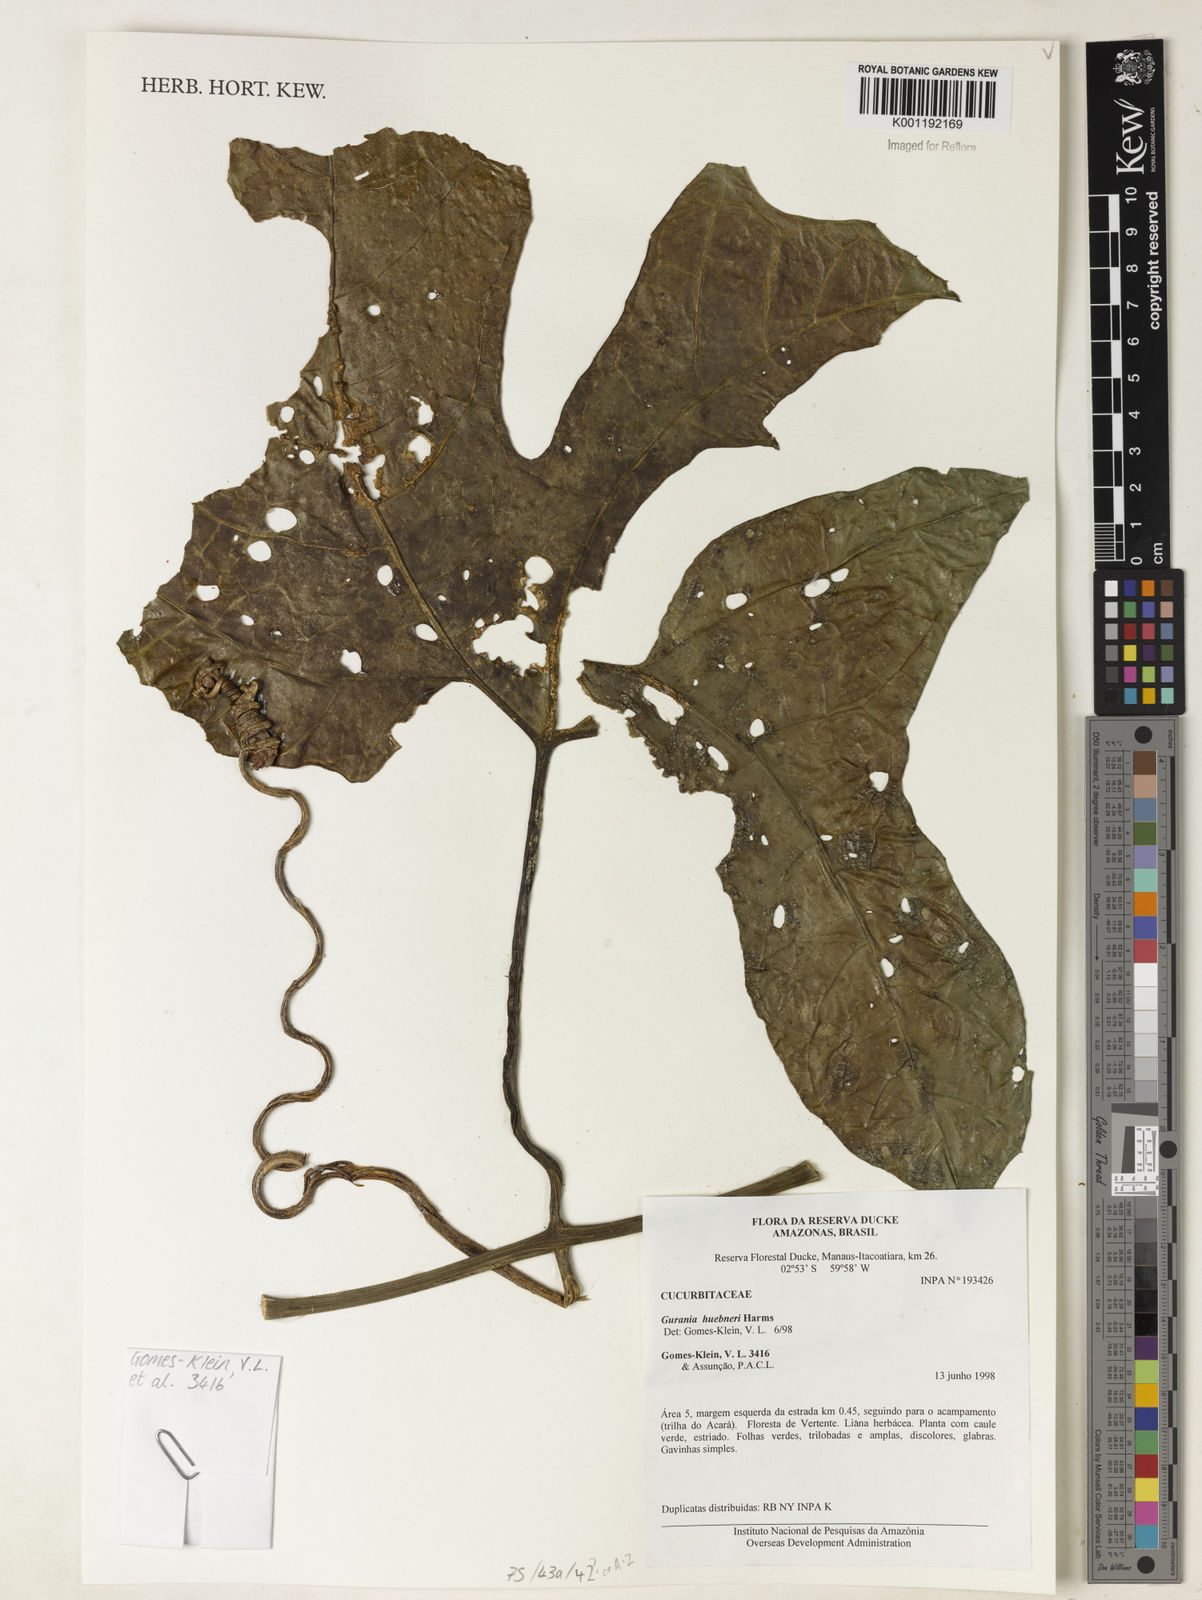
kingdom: Plantae
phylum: Tracheophyta
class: Magnoliopsida
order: Cucurbitales
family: Cucurbitaceae
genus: Gurania
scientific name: Gurania huebneri
